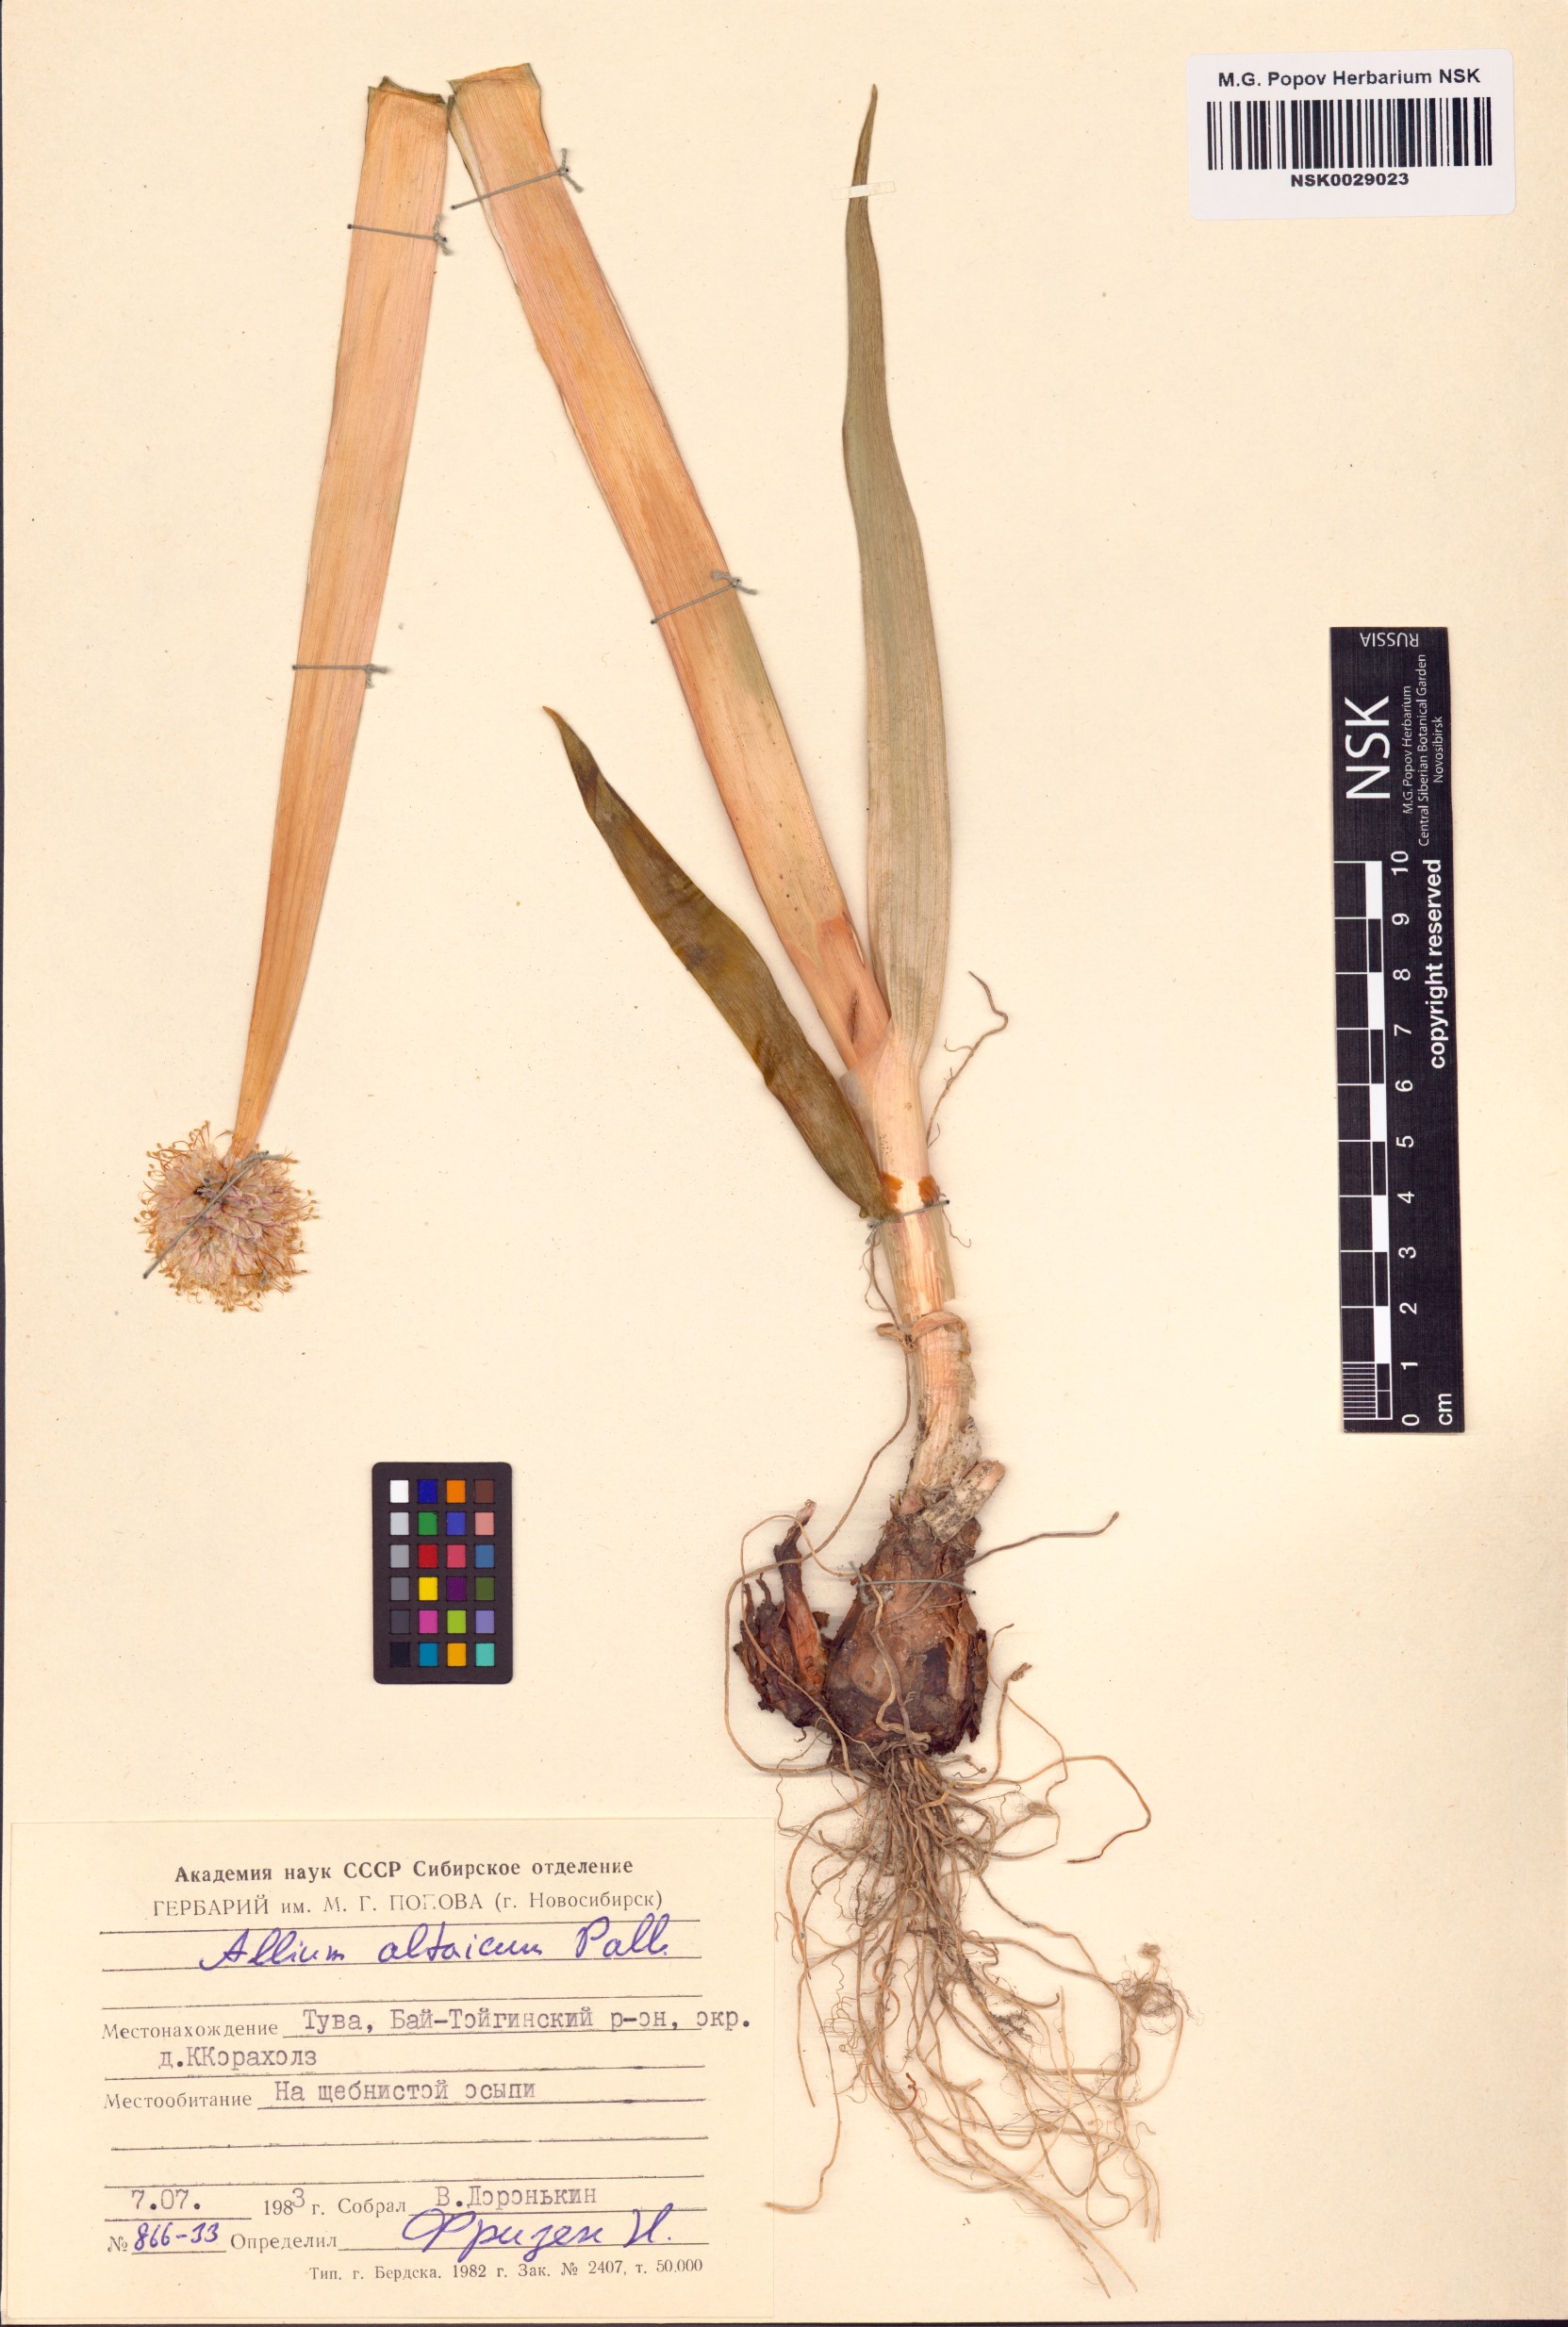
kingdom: Plantae
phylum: Tracheophyta
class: Liliopsida
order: Asparagales
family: Amaryllidaceae
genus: Allium
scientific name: Allium altaicum
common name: Altai onion
